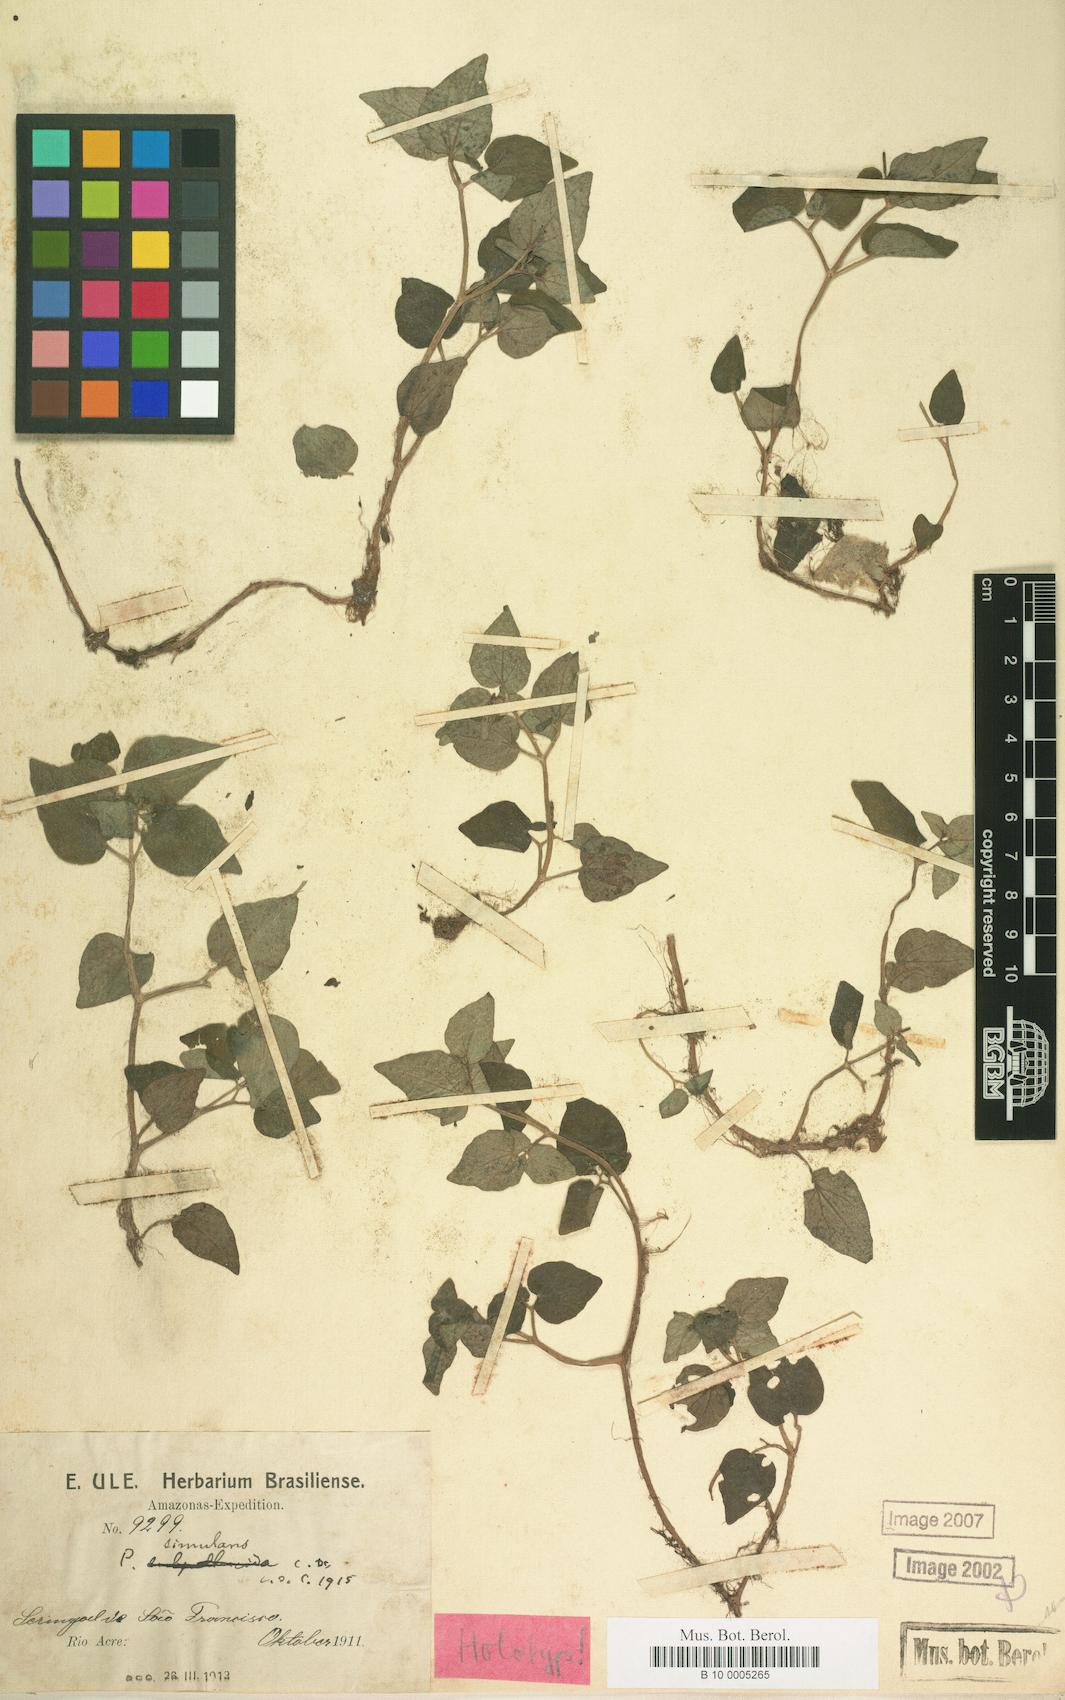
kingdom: Plantae
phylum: Tracheophyta
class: Magnoliopsida
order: Piperales
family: Piperaceae
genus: Peperomia
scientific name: Peperomia simulans
